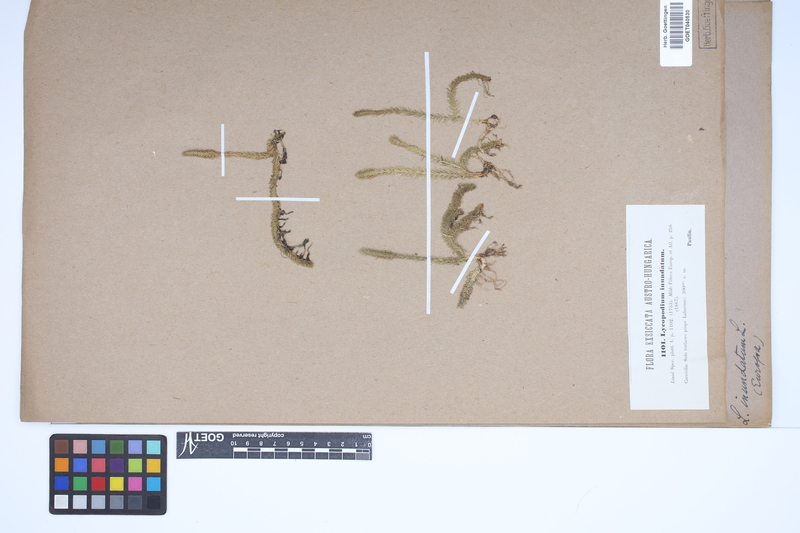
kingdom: Plantae
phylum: Tracheophyta
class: Lycopodiopsida
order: Lycopodiales
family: Lycopodiaceae
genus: Lycopodiella
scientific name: Lycopodiella inundata
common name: Marsh clubmoss
